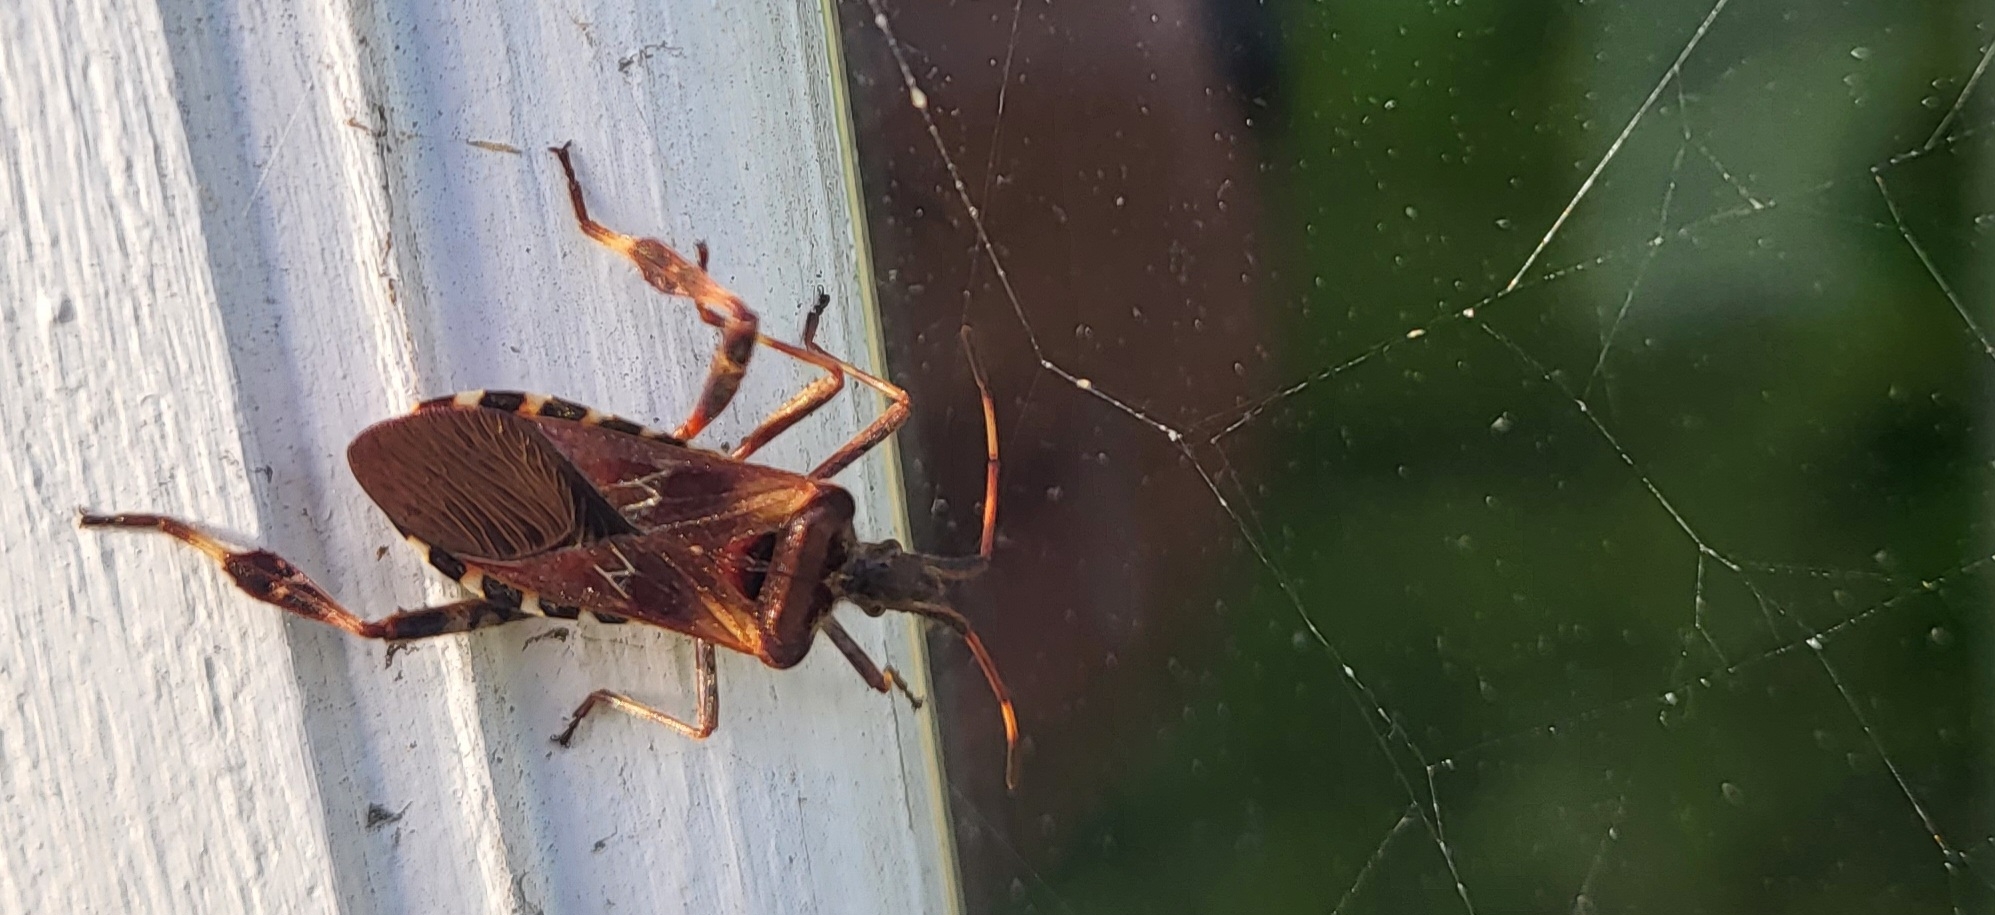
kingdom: Animalia
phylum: Arthropoda
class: Insecta
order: Hemiptera
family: Coreidae
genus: Leptoglossus
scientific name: Leptoglossus occidentalis
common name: Amerikansk fyrretæge
